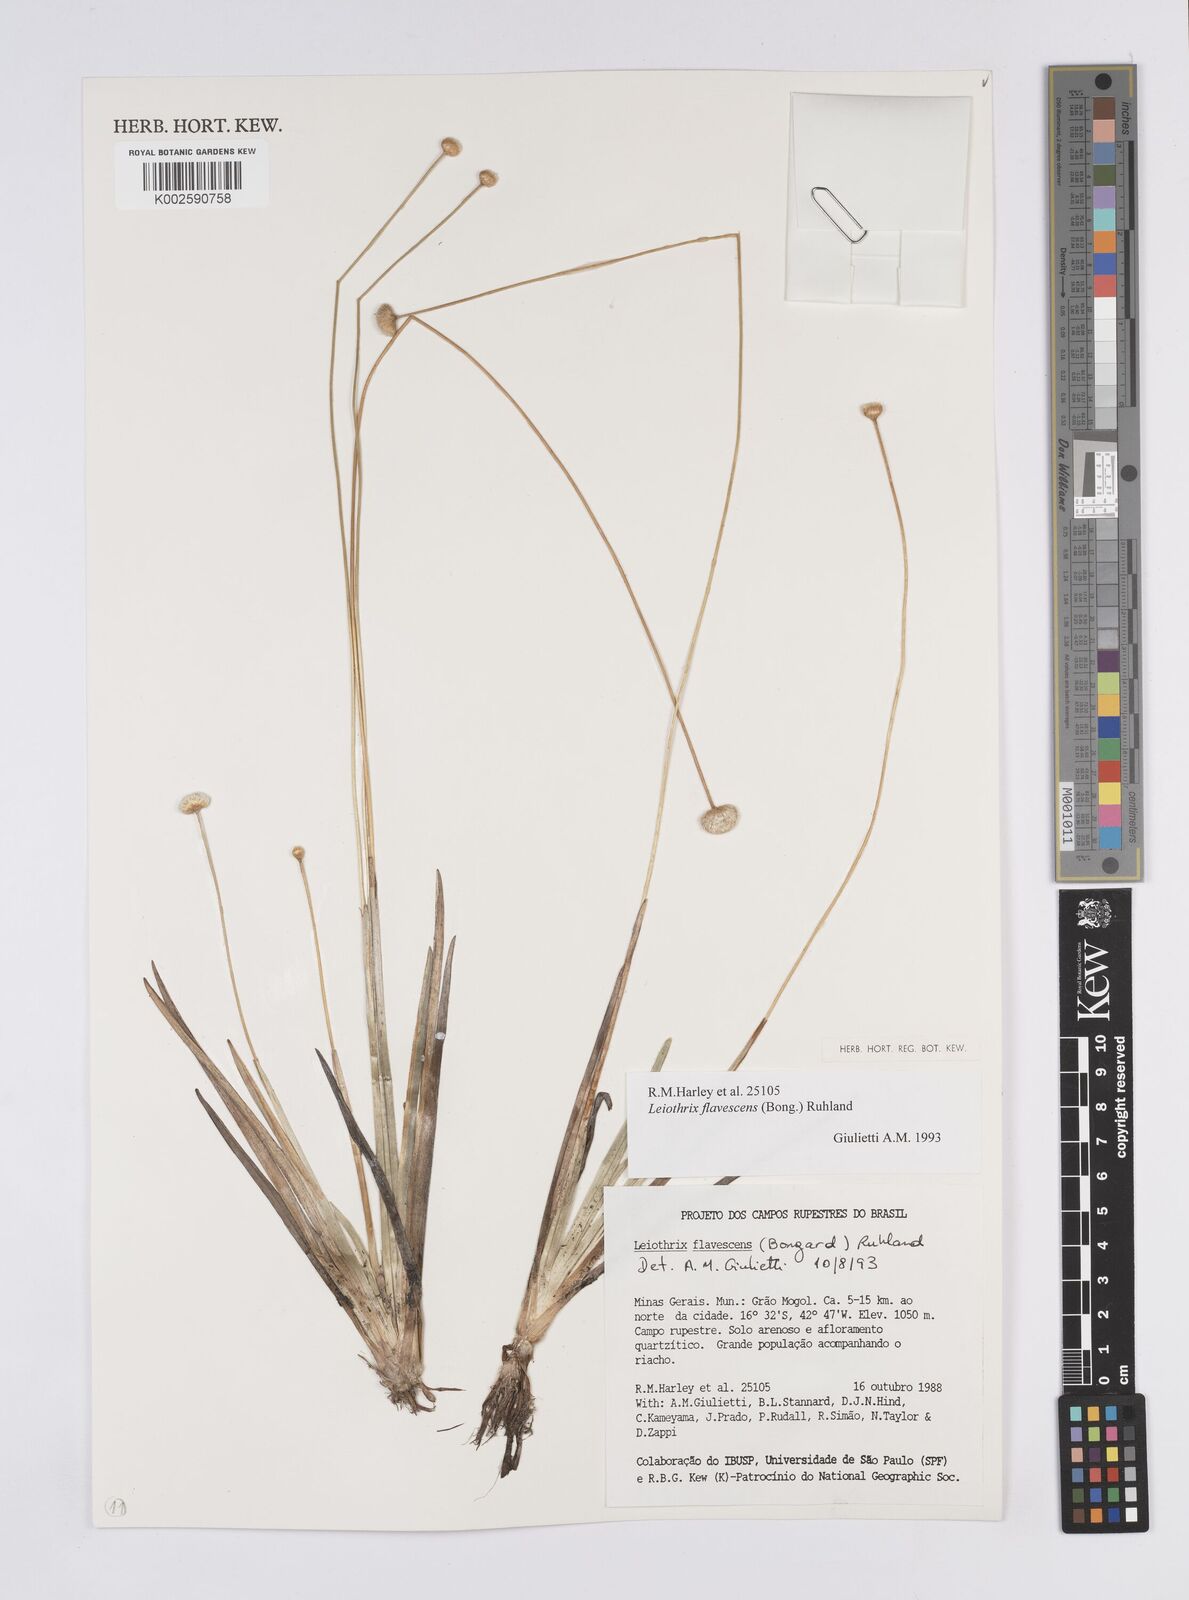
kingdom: Plantae
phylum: Tracheophyta
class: Liliopsida
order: Poales
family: Eriocaulaceae
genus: Leiothrix
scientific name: Leiothrix flavescens
